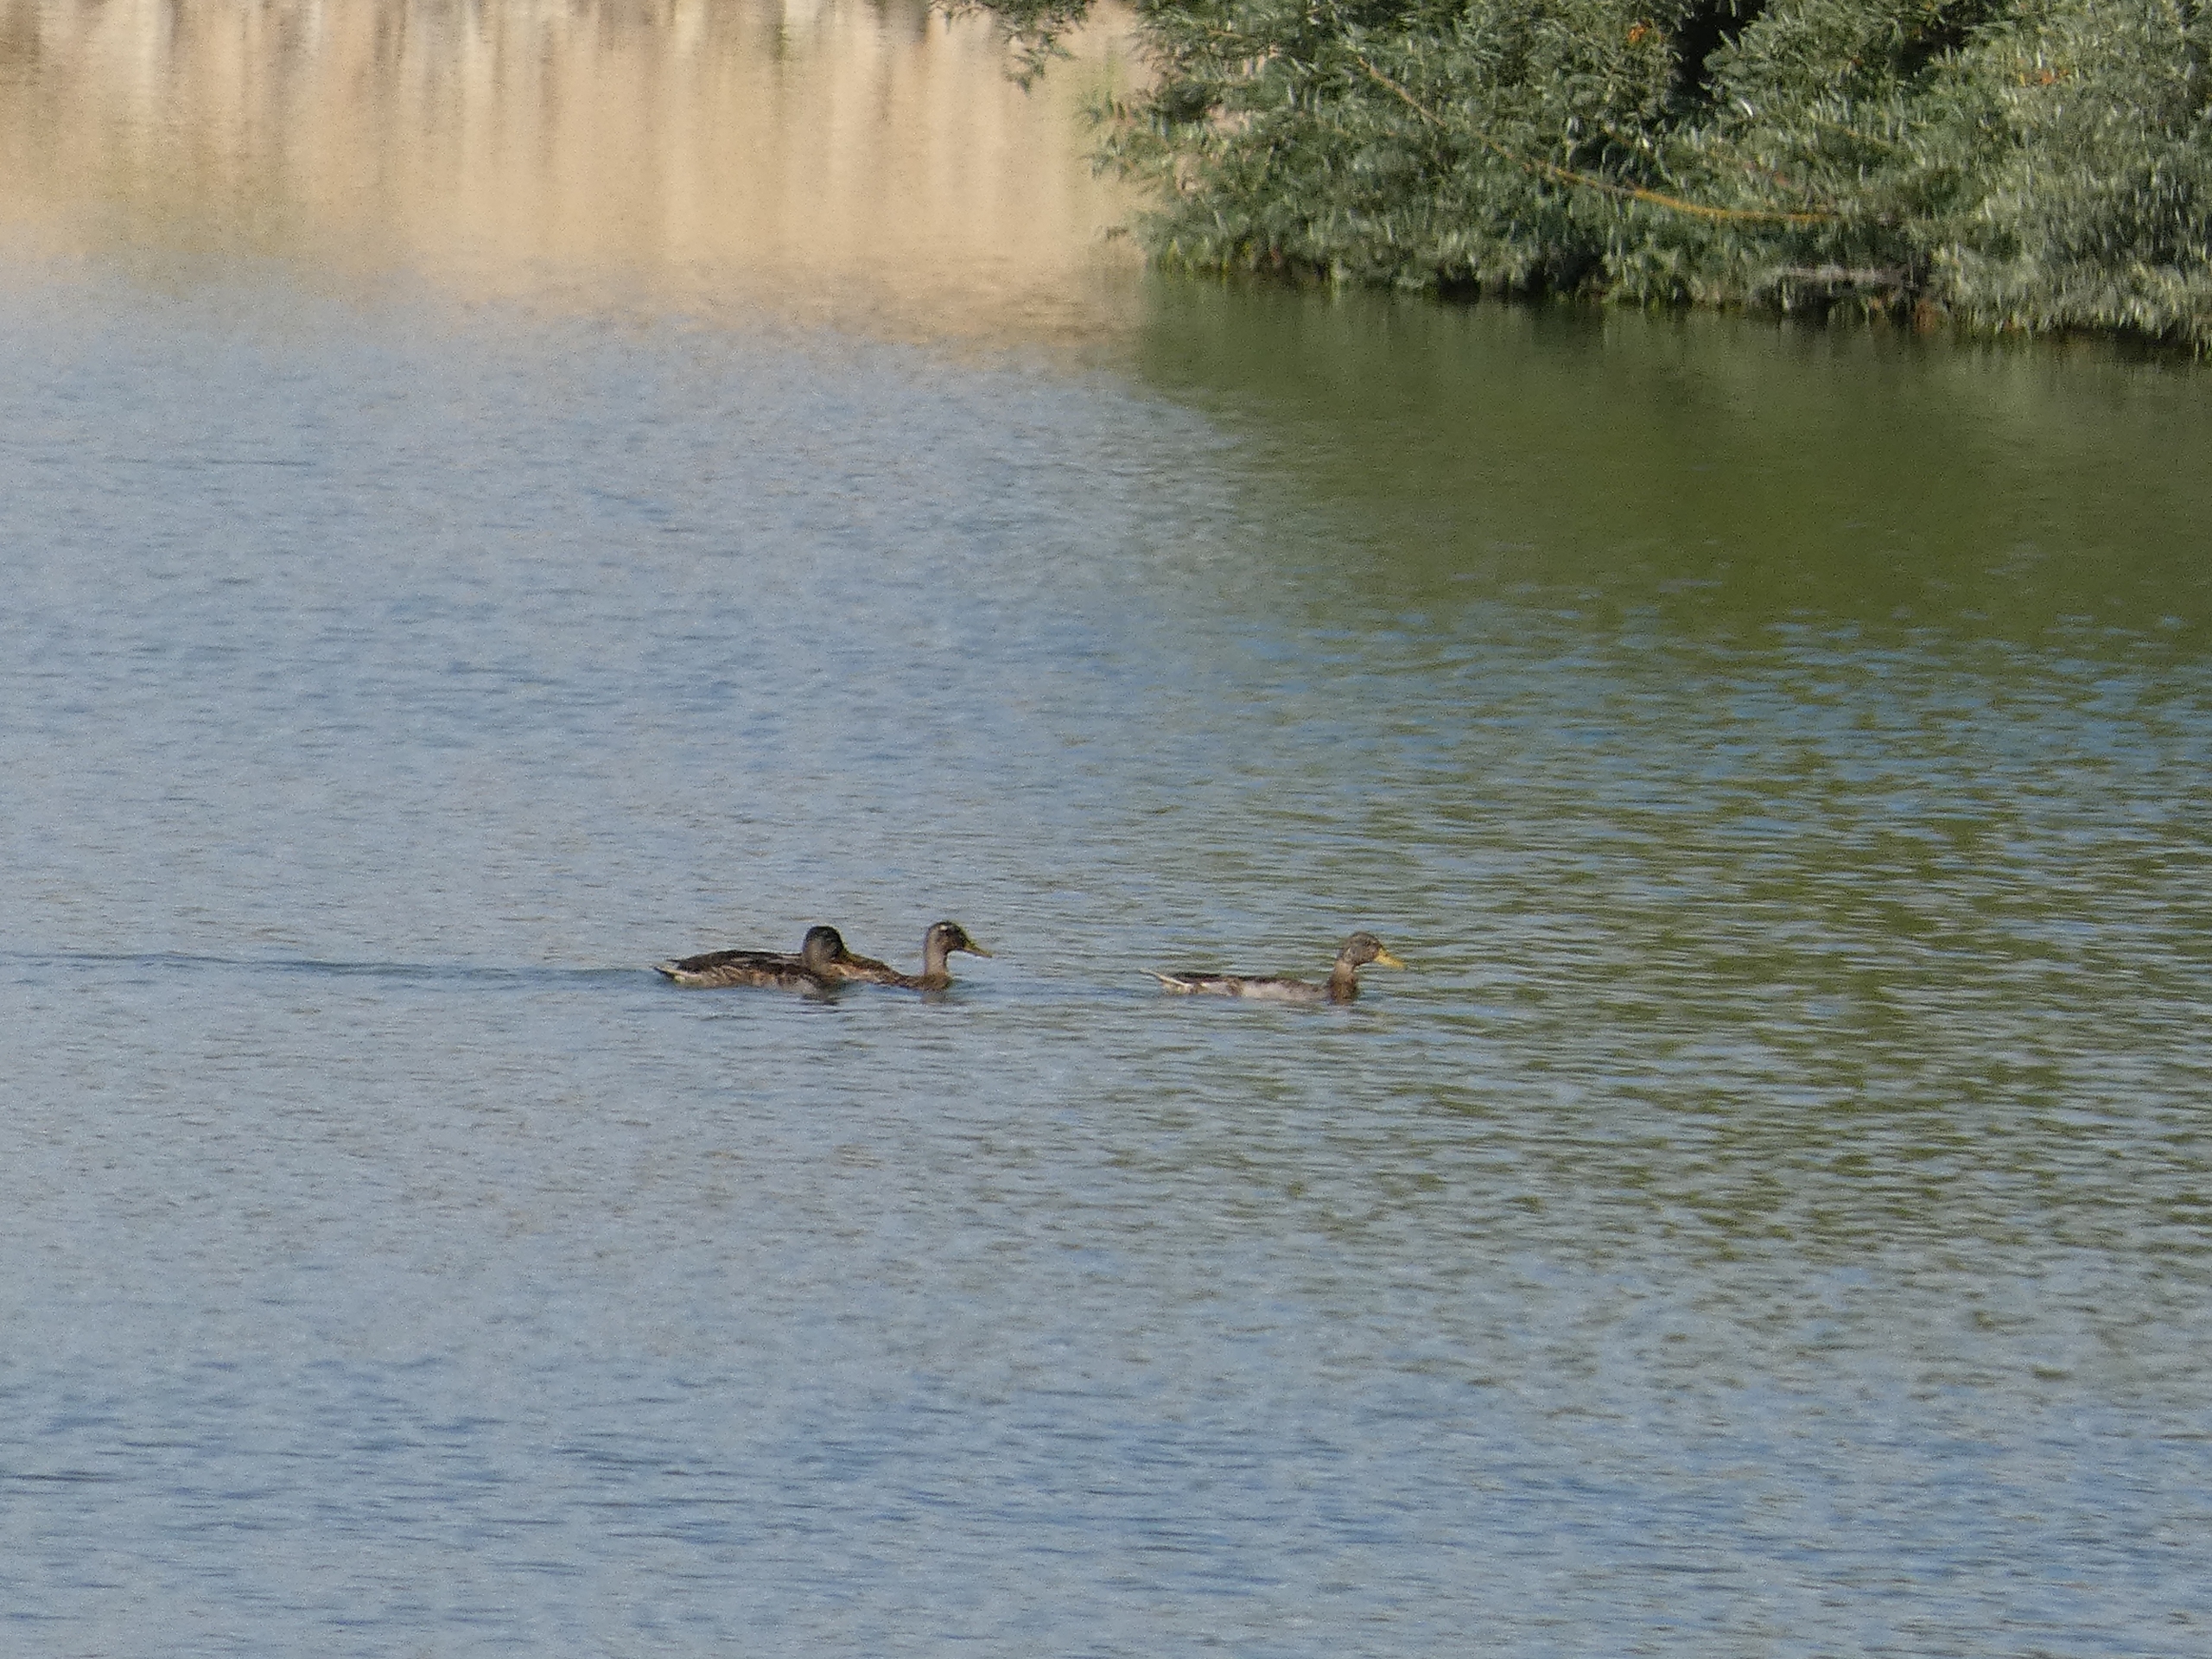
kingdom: Animalia
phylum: Chordata
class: Aves
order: Anseriformes
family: Anatidae
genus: Anas
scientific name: Anas platyrhynchos
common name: Gråand
